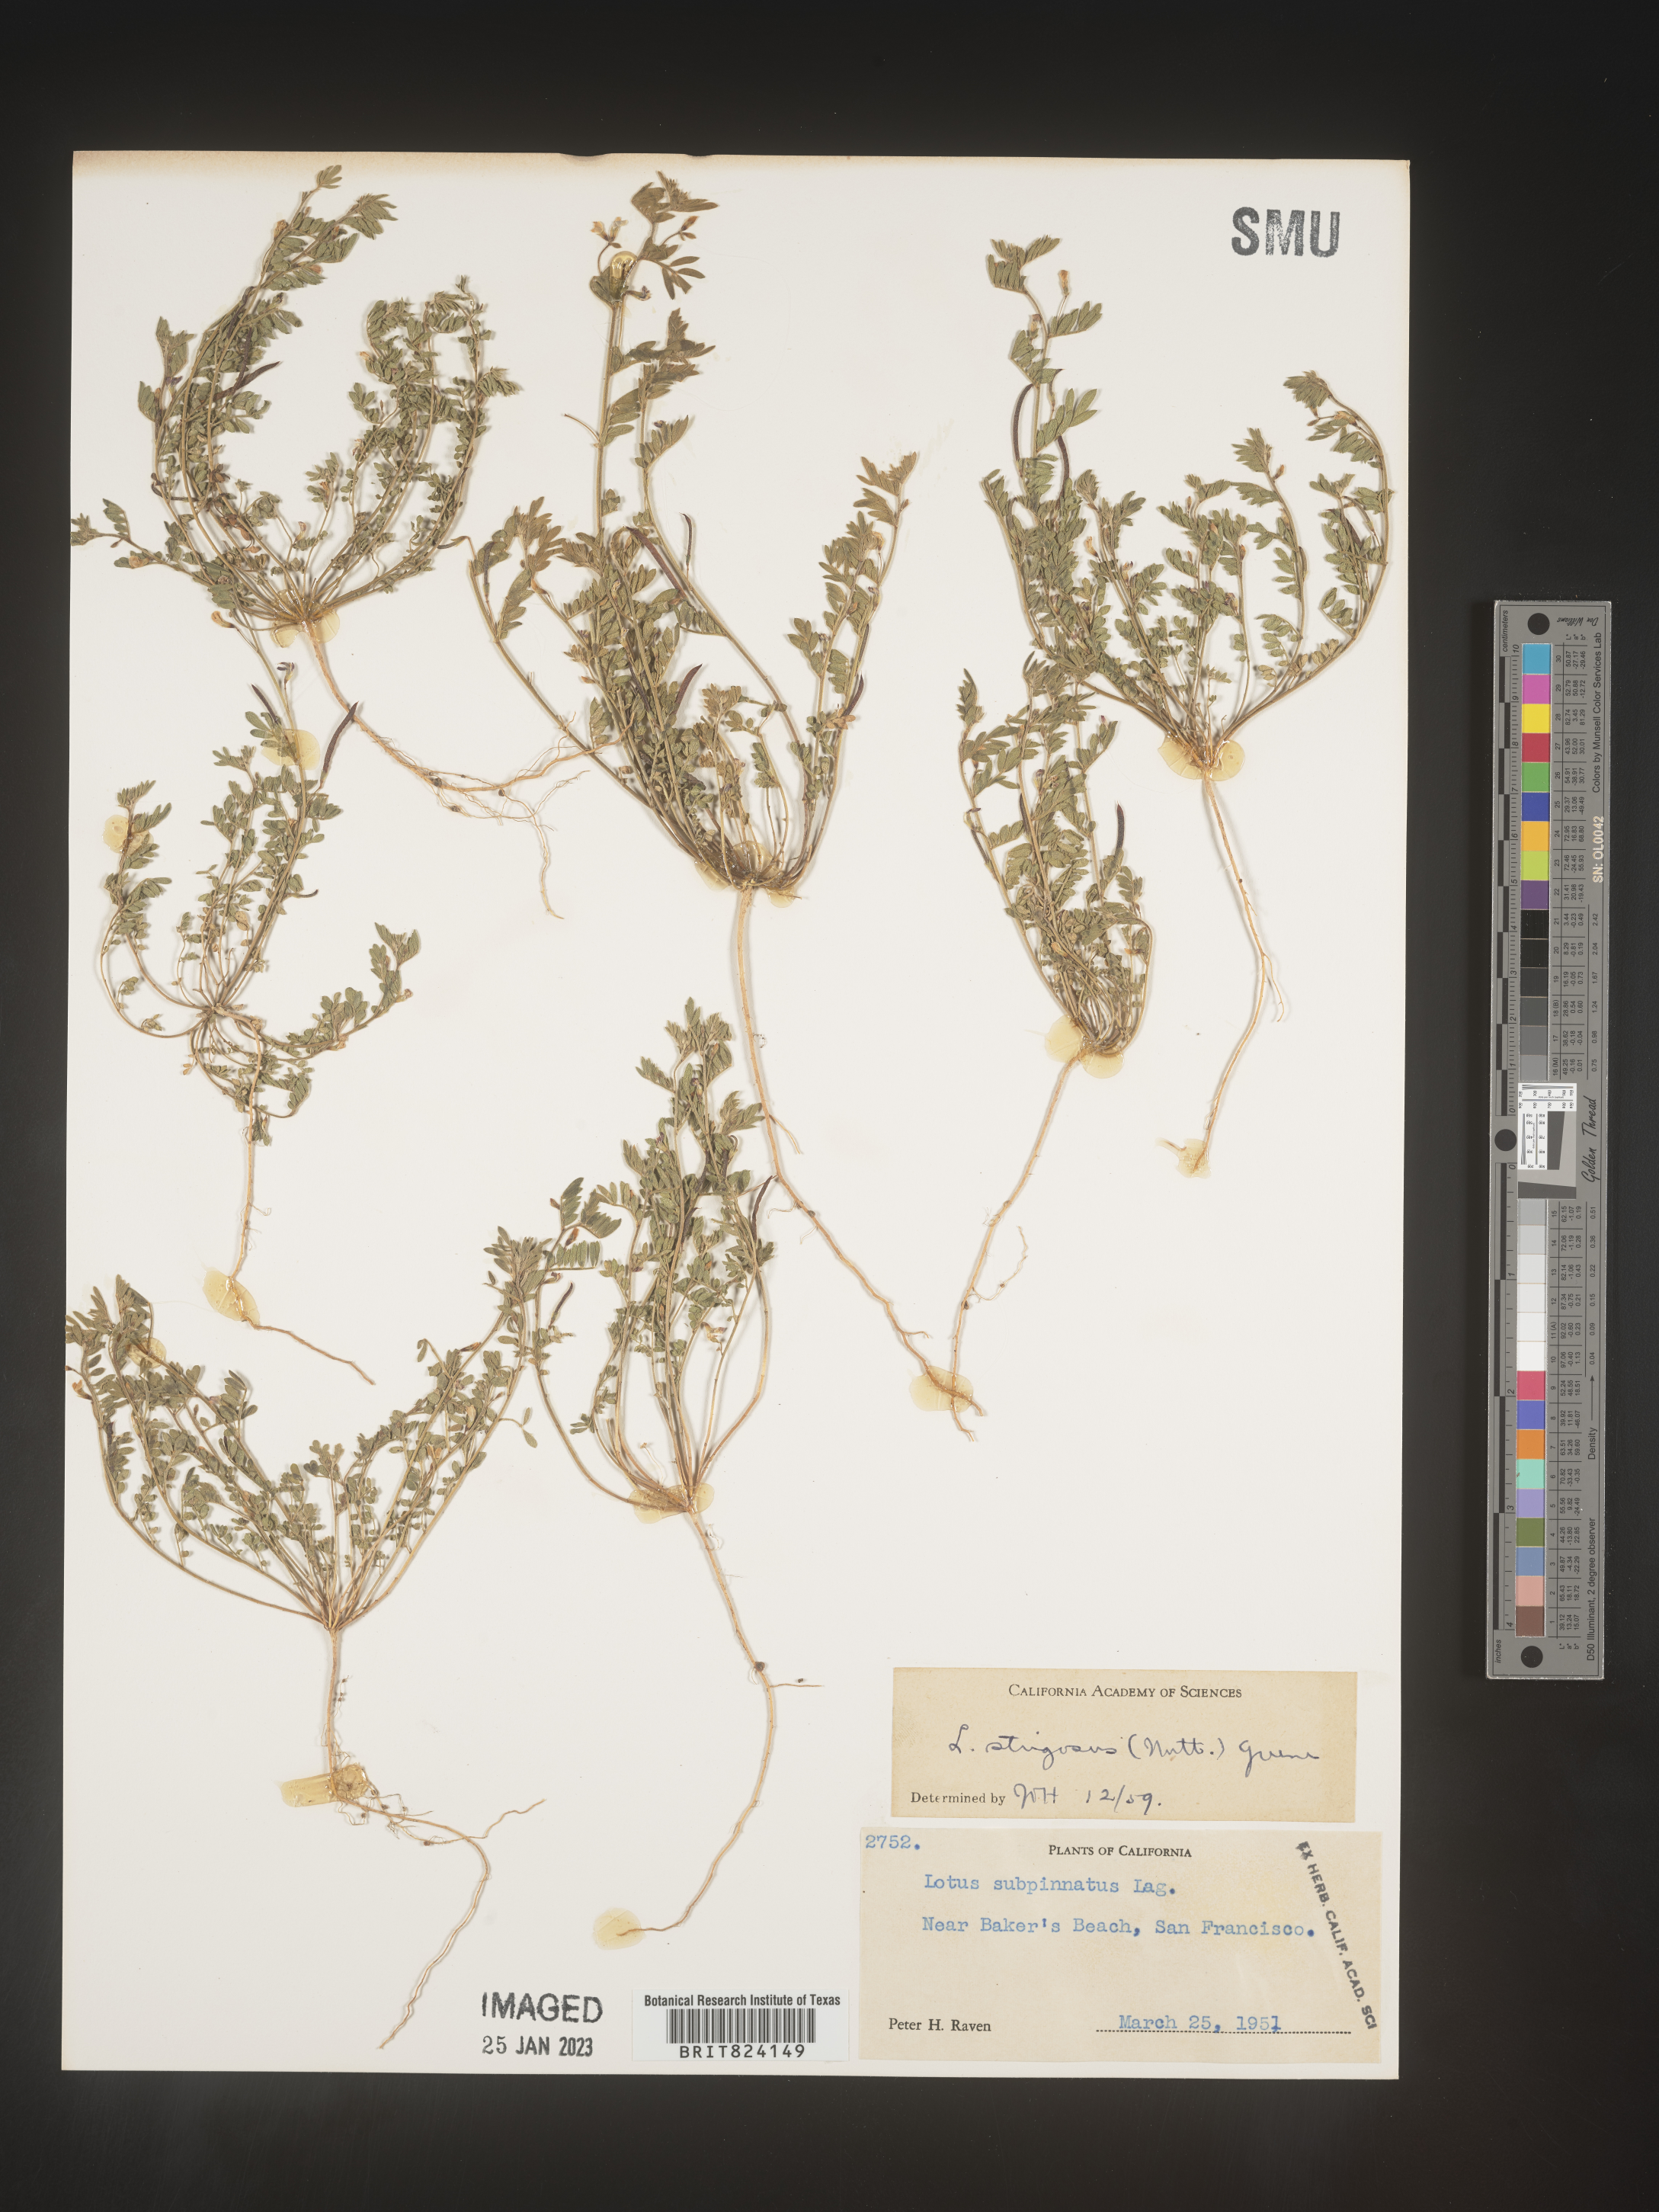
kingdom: Plantae
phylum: Tracheophyta
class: Magnoliopsida
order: Fabales
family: Fabaceae
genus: Lotus
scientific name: Lotus
